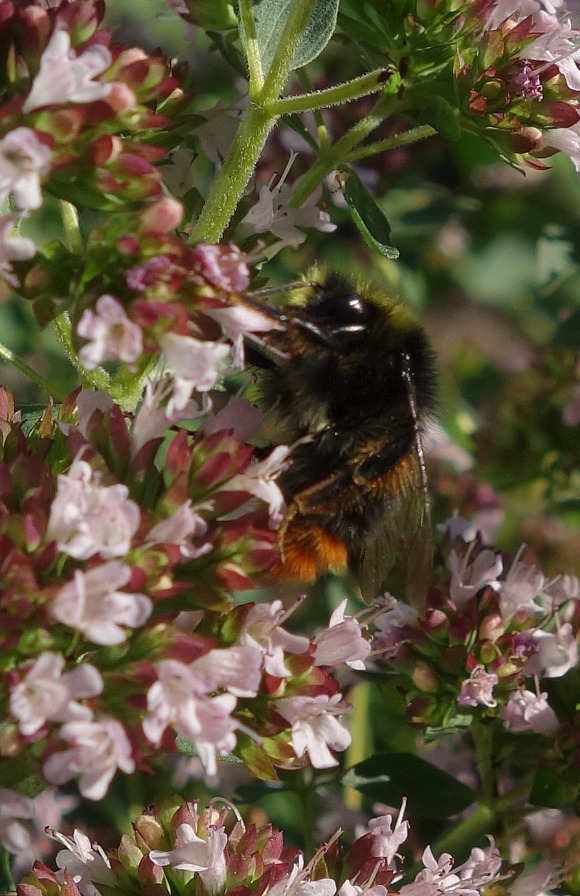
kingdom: Animalia
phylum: Arthropoda
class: Insecta
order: Hymenoptera
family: Apidae
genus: Bombus
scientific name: Bombus lapidarius
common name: Stenhumle
